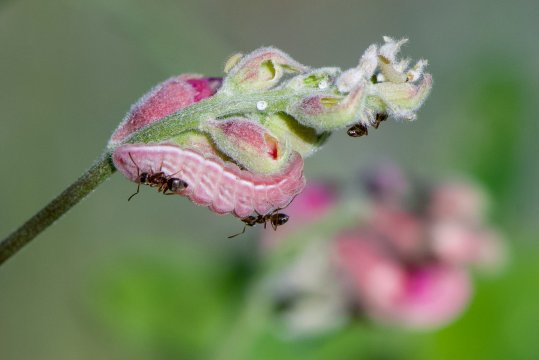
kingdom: Animalia
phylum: Arthropoda
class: Insecta
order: Lepidoptera
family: Lycaenidae
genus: Glaucopsyche
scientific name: Glaucopsyche lygdamus
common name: Silvery Blue
